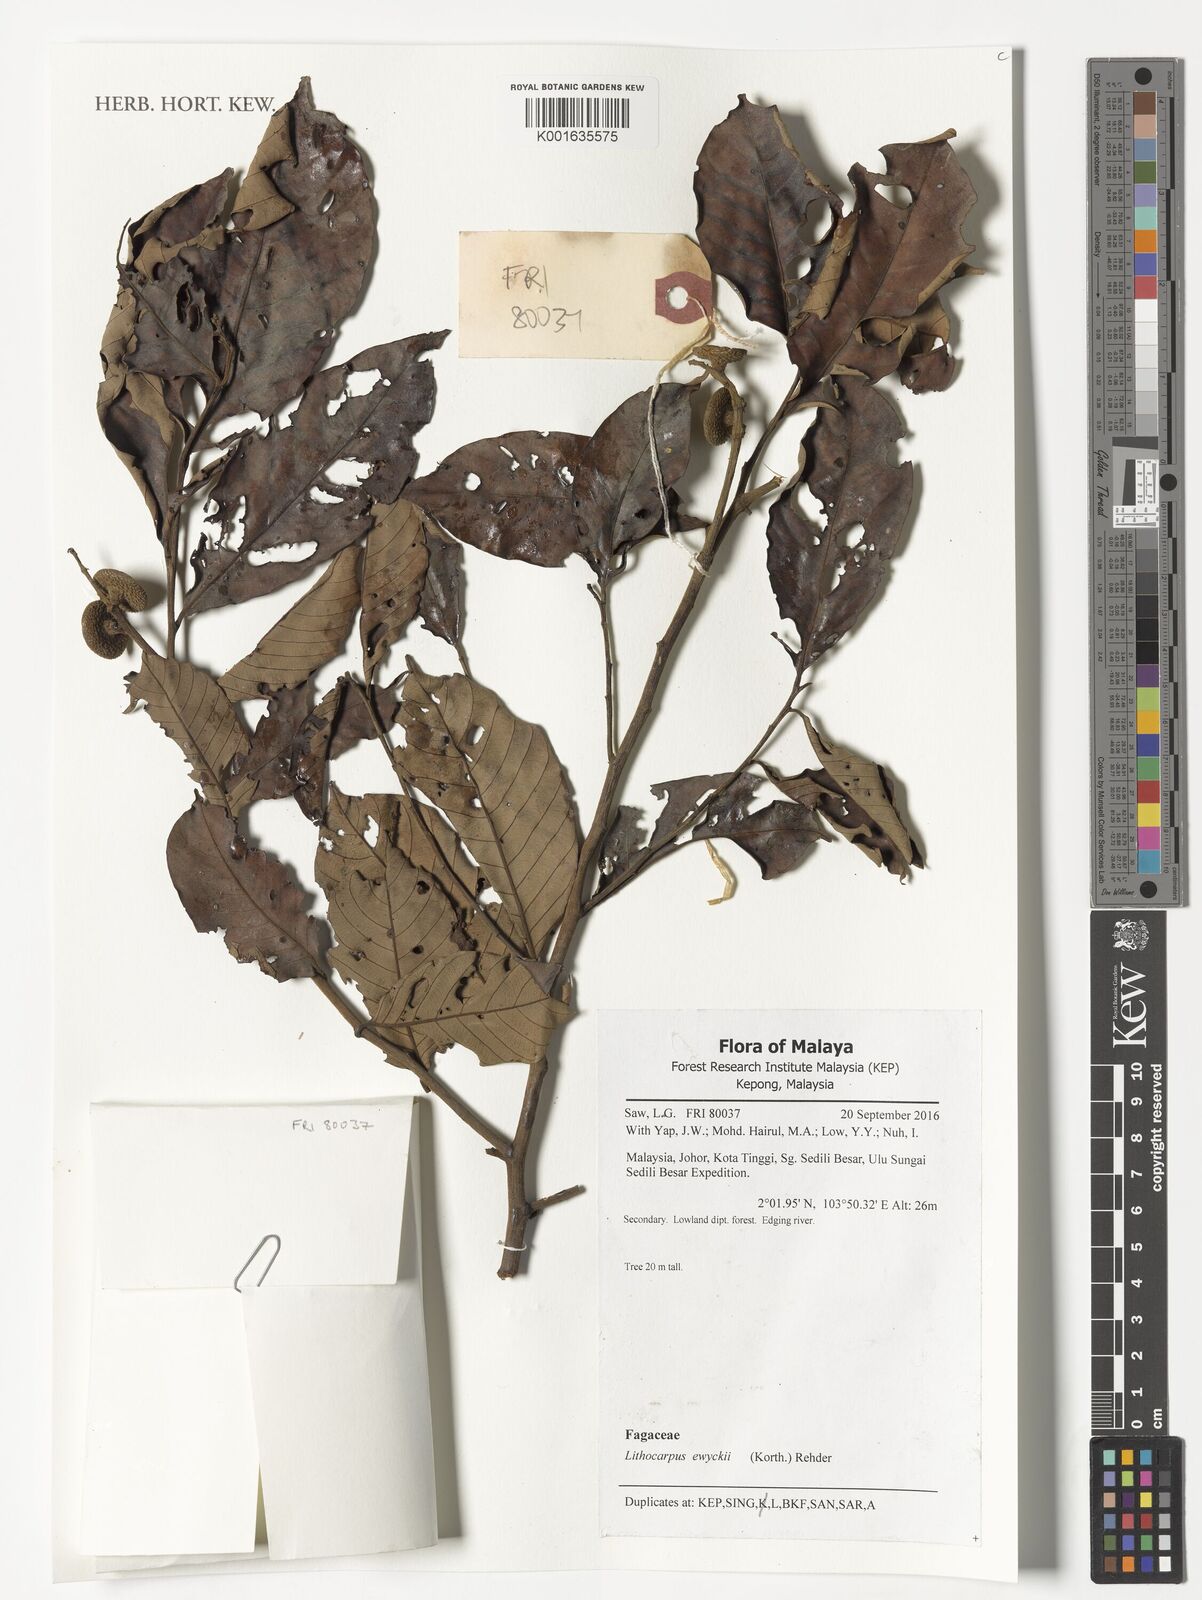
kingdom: Plantae
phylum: Tracheophyta
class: Magnoliopsida
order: Fagales
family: Fagaceae
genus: Lithocarpus
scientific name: Lithocarpus ewyckii
